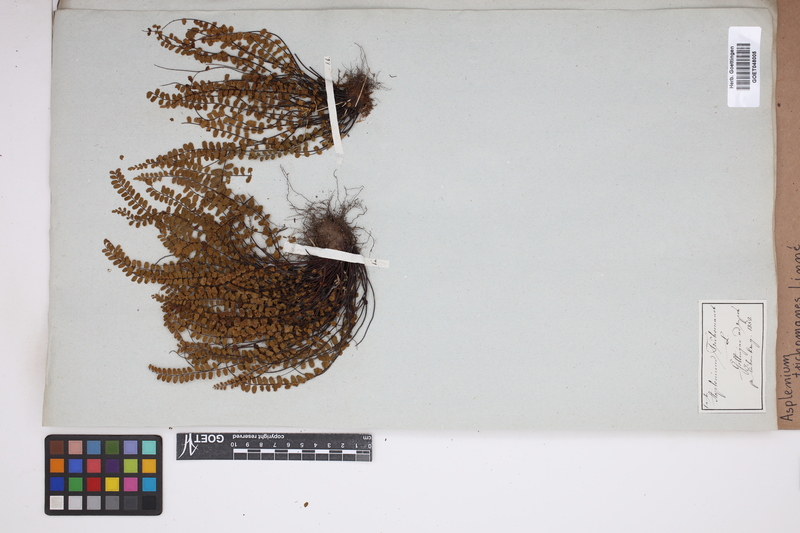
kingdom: Plantae
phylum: Tracheophyta
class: Polypodiopsida
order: Polypodiales
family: Aspleniaceae
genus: Asplenium
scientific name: Asplenium trichomanes
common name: Maidenhair spleenwort
